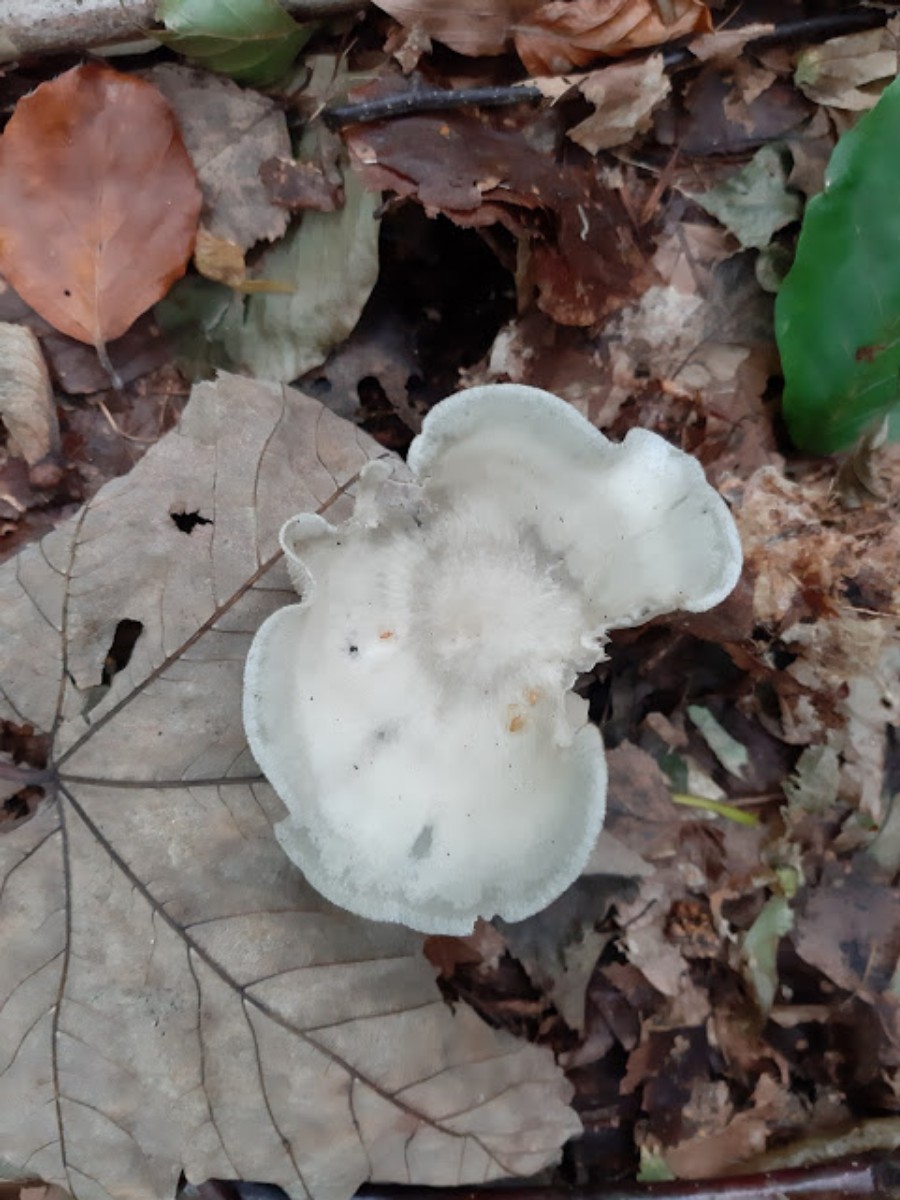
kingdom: Fungi
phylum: Basidiomycota
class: Agaricomycetes
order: Agaricales
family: Tricholomataceae
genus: Clitocybe
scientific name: Clitocybe odora
